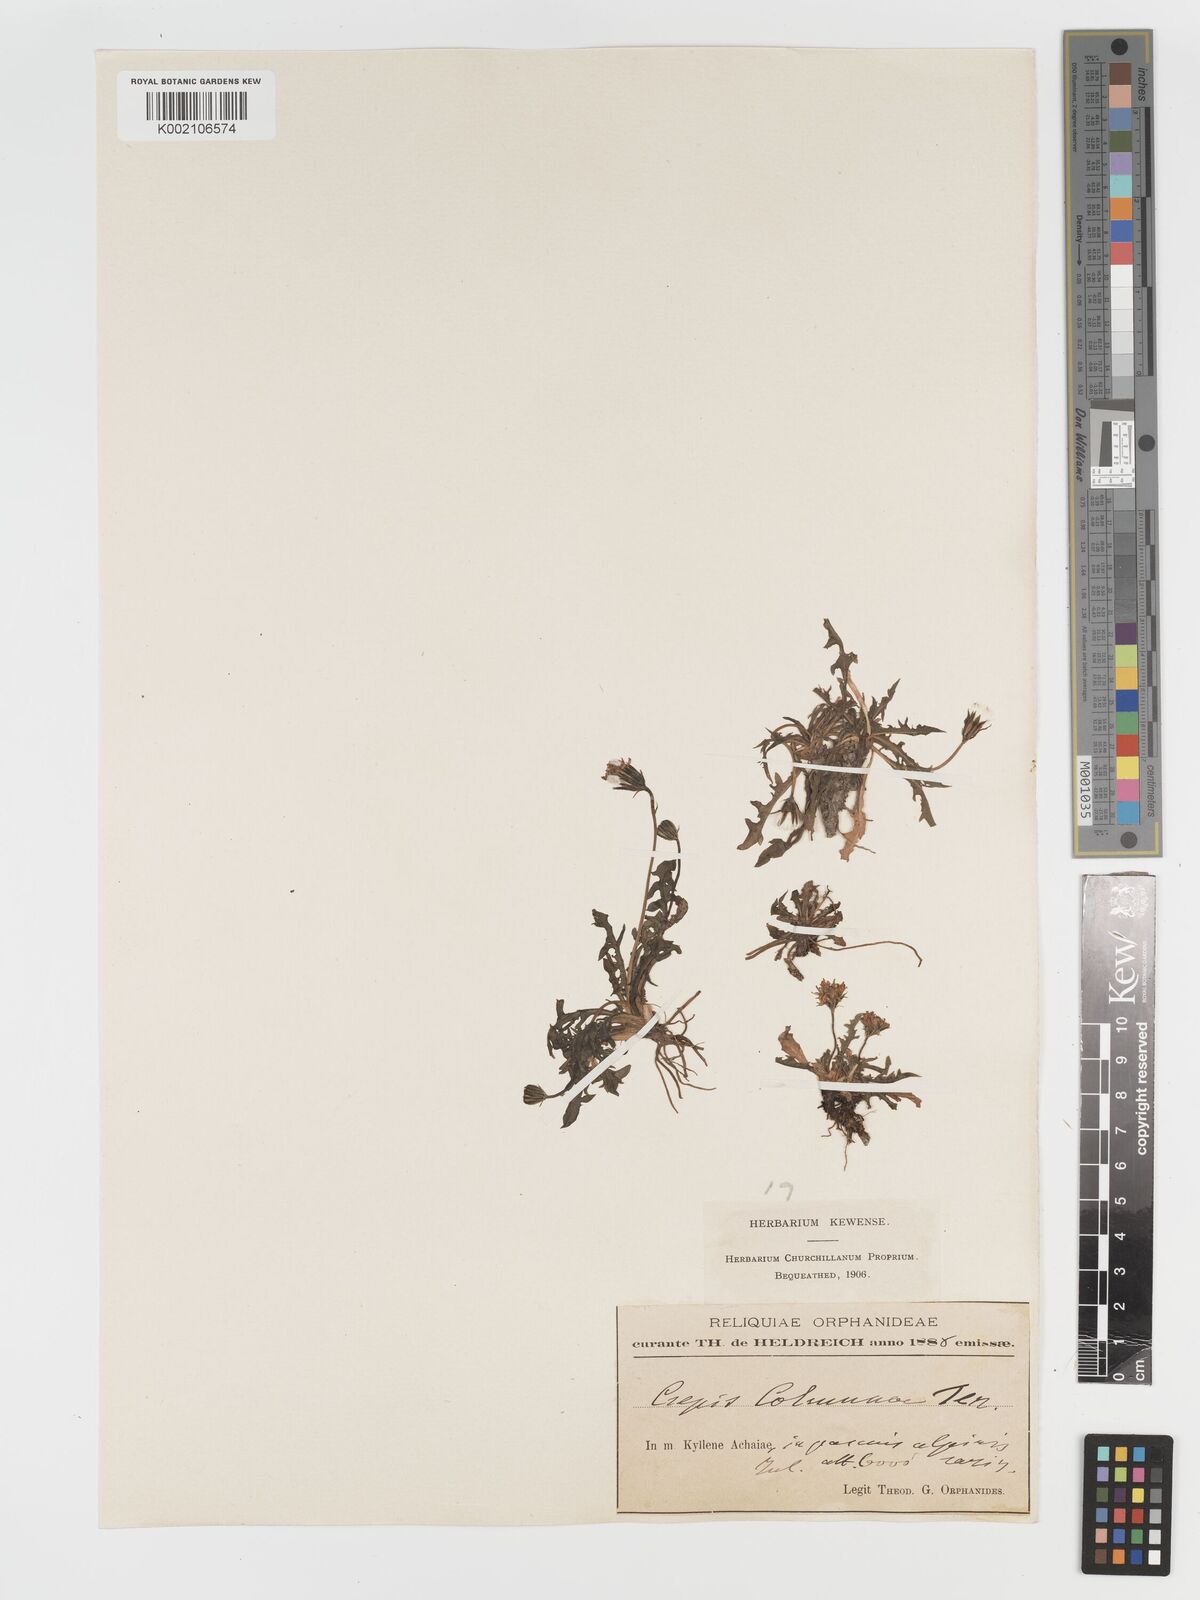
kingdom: Plantae
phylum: Tracheophyta
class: Magnoliopsida
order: Asterales
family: Asteraceae
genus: Crepis
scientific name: Crepis
